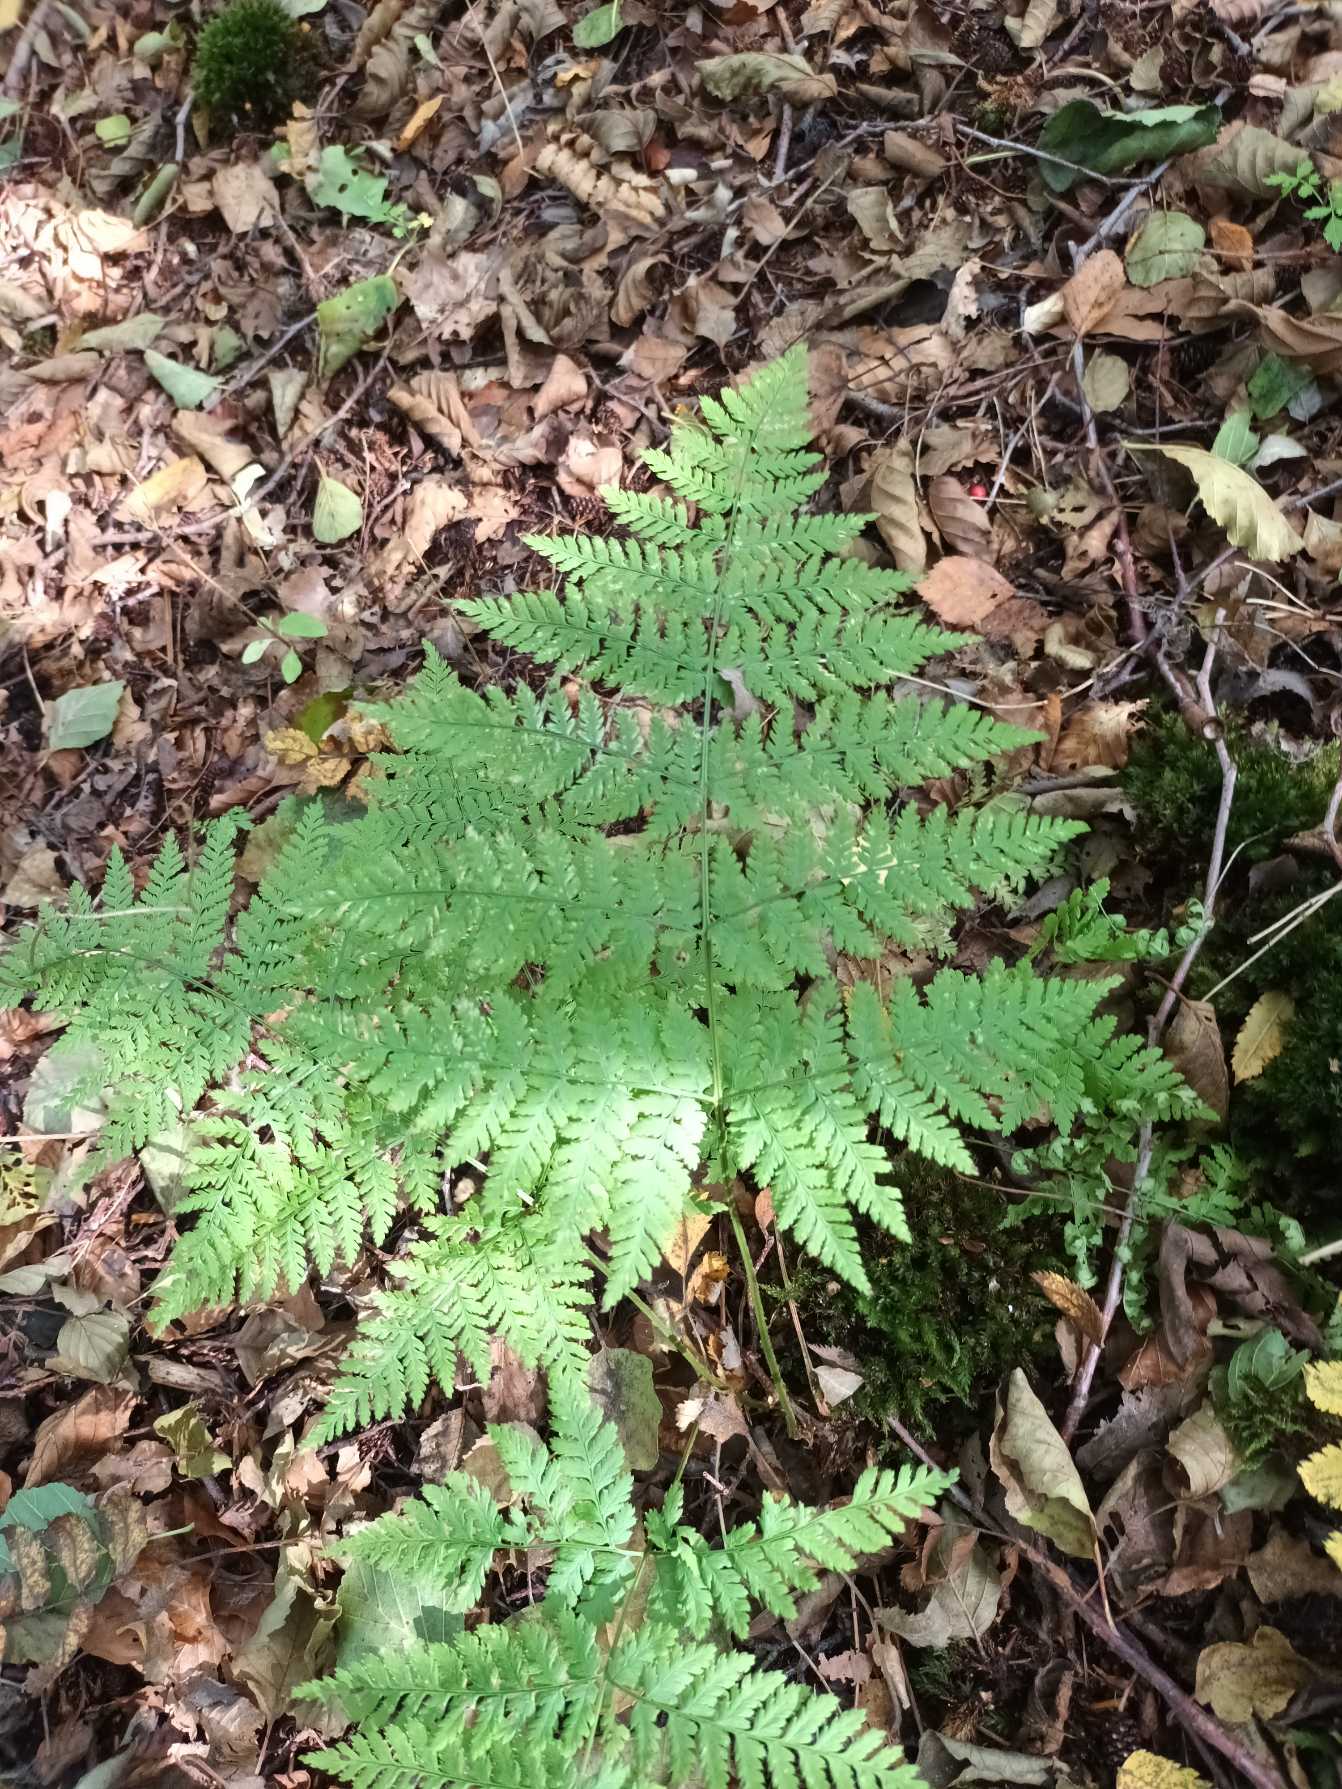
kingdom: Plantae
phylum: Tracheophyta
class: Polypodiopsida
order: Polypodiales
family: Dryopteridaceae
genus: Dryopteris
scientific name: Dryopteris expansa
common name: Finbladet mangeløv
